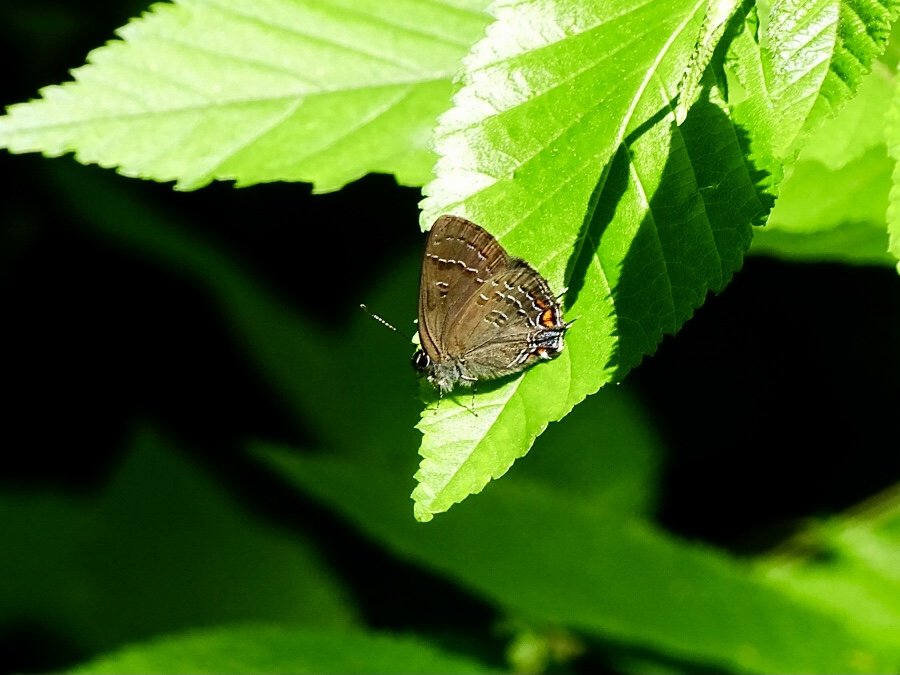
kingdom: Animalia
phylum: Arthropoda
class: Insecta
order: Lepidoptera
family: Lycaenidae
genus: Satyrium
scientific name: Satyrium calanus
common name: Banded Hairstreak
